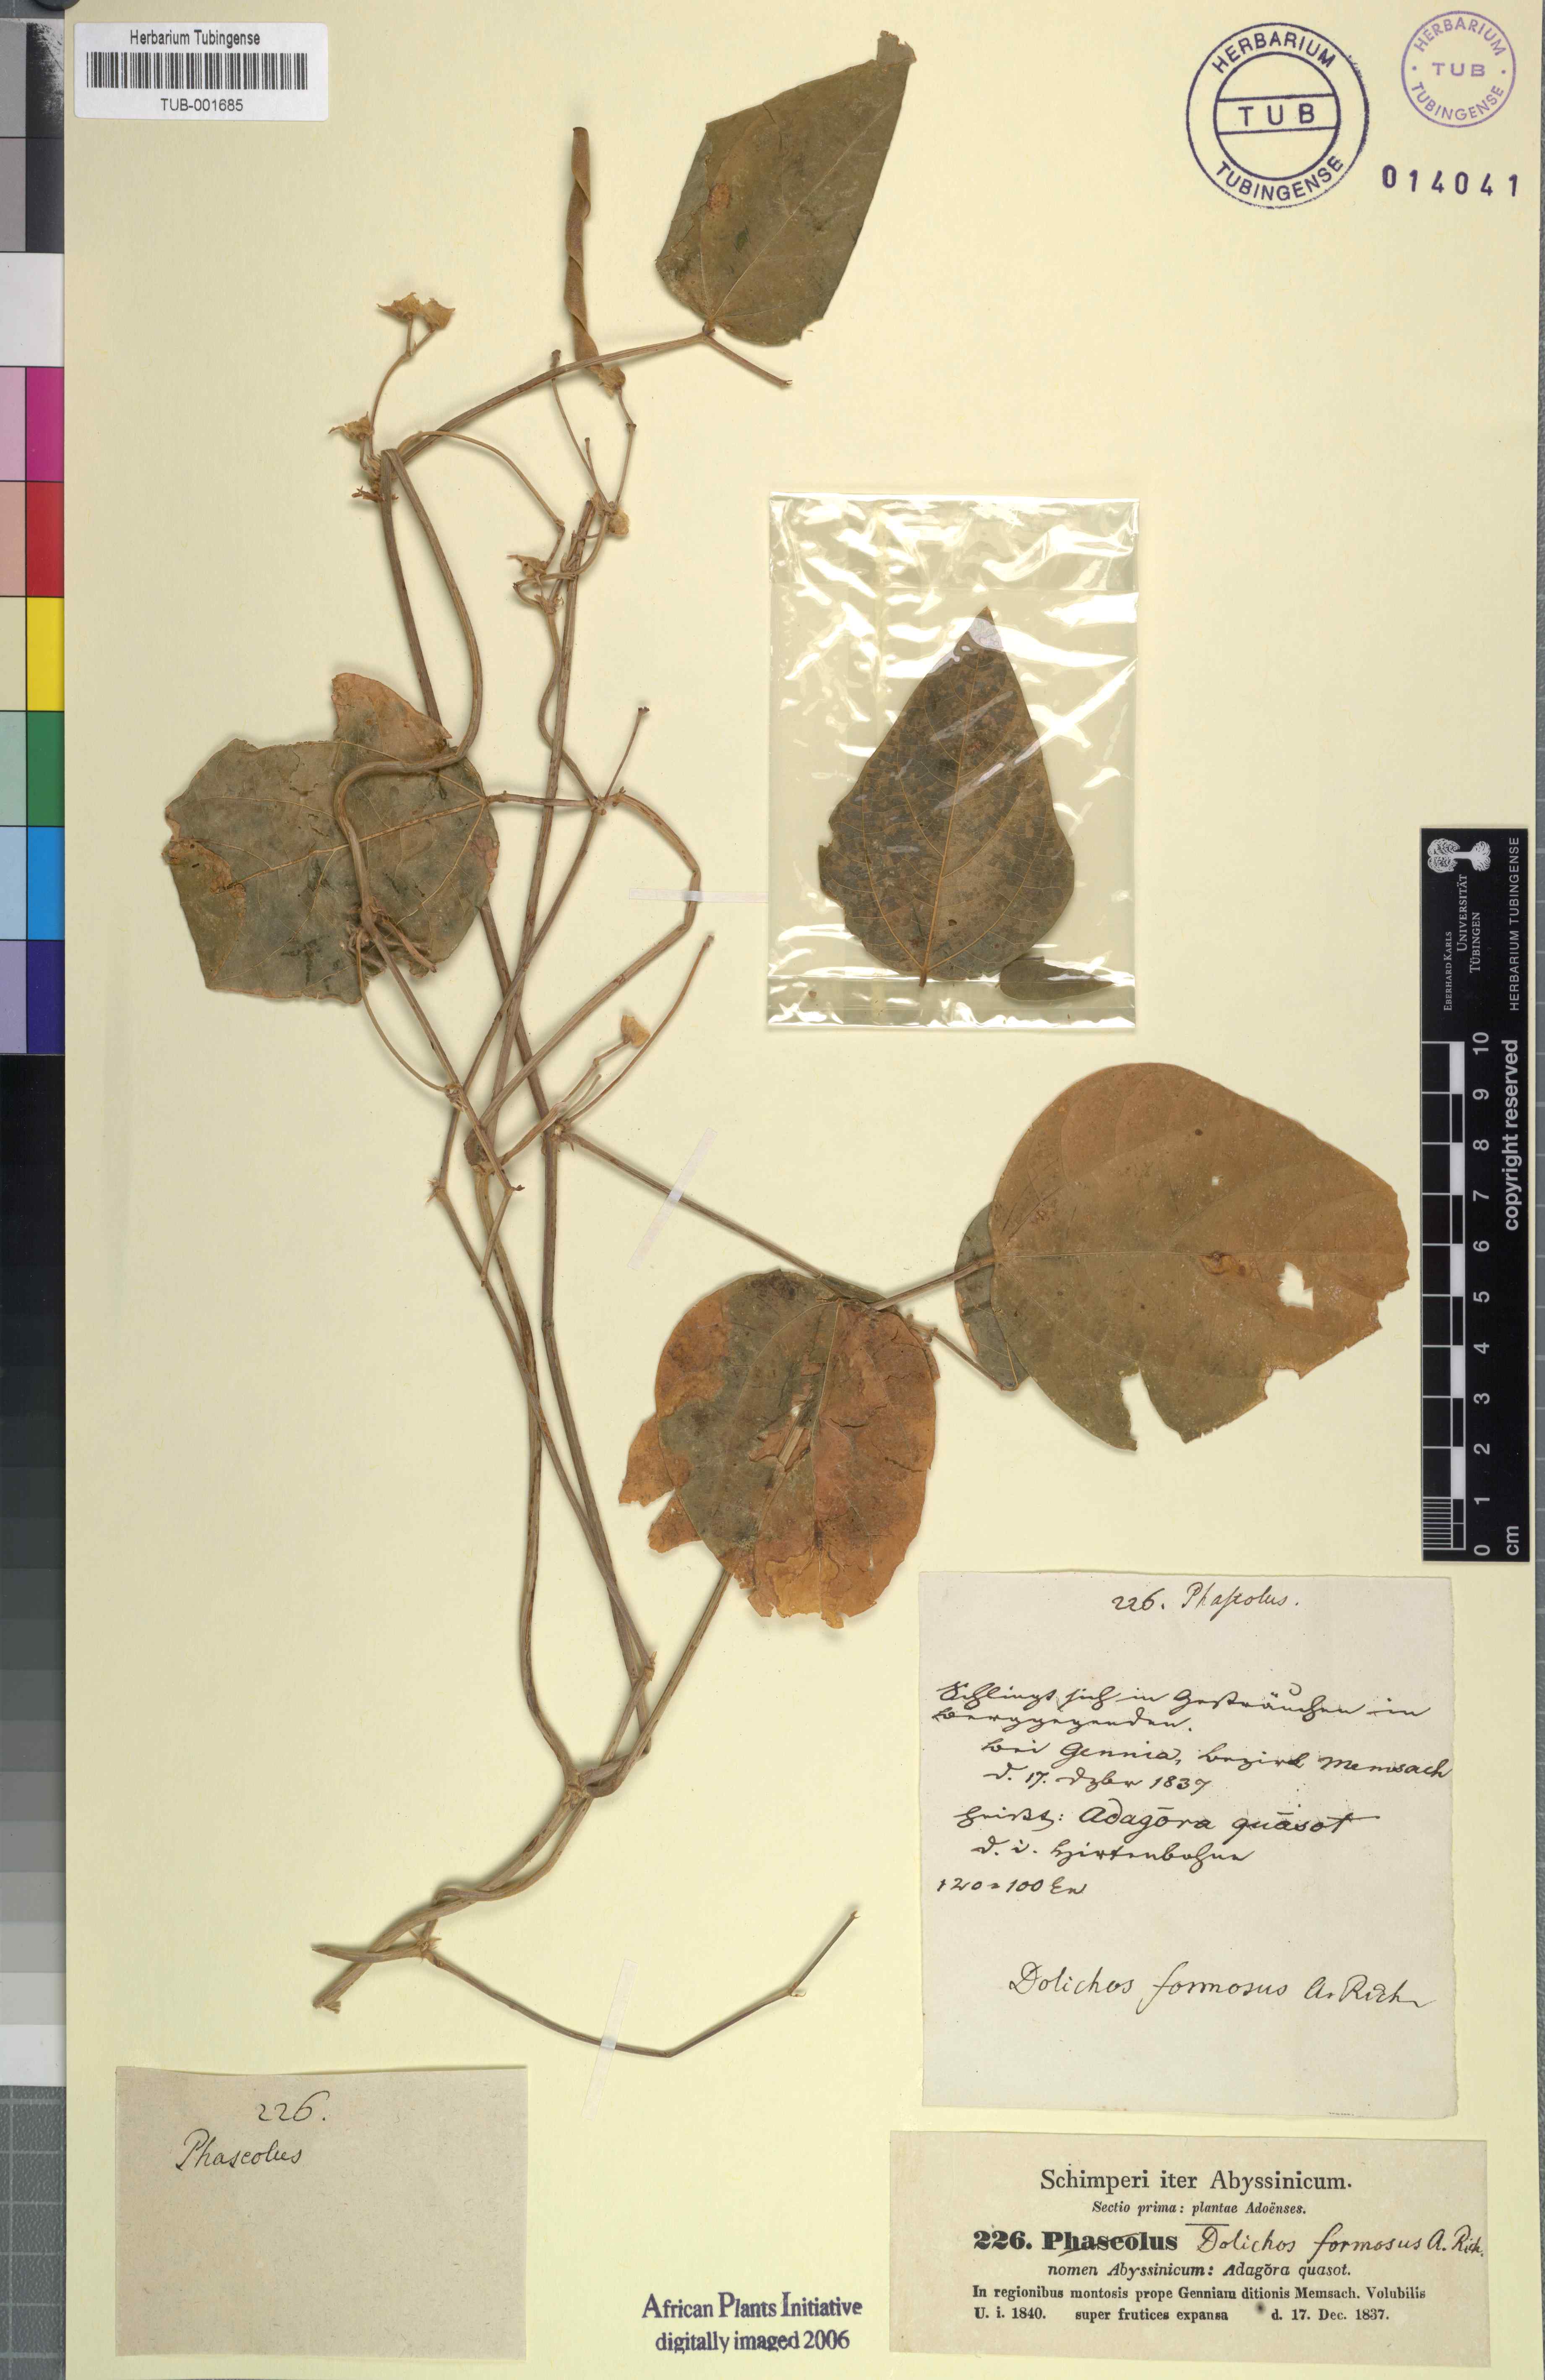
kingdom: Plantae
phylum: Tracheophyta
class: Magnoliopsida
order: Fabales
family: Fabaceae
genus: Dolichos
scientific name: Dolichos sericeus
